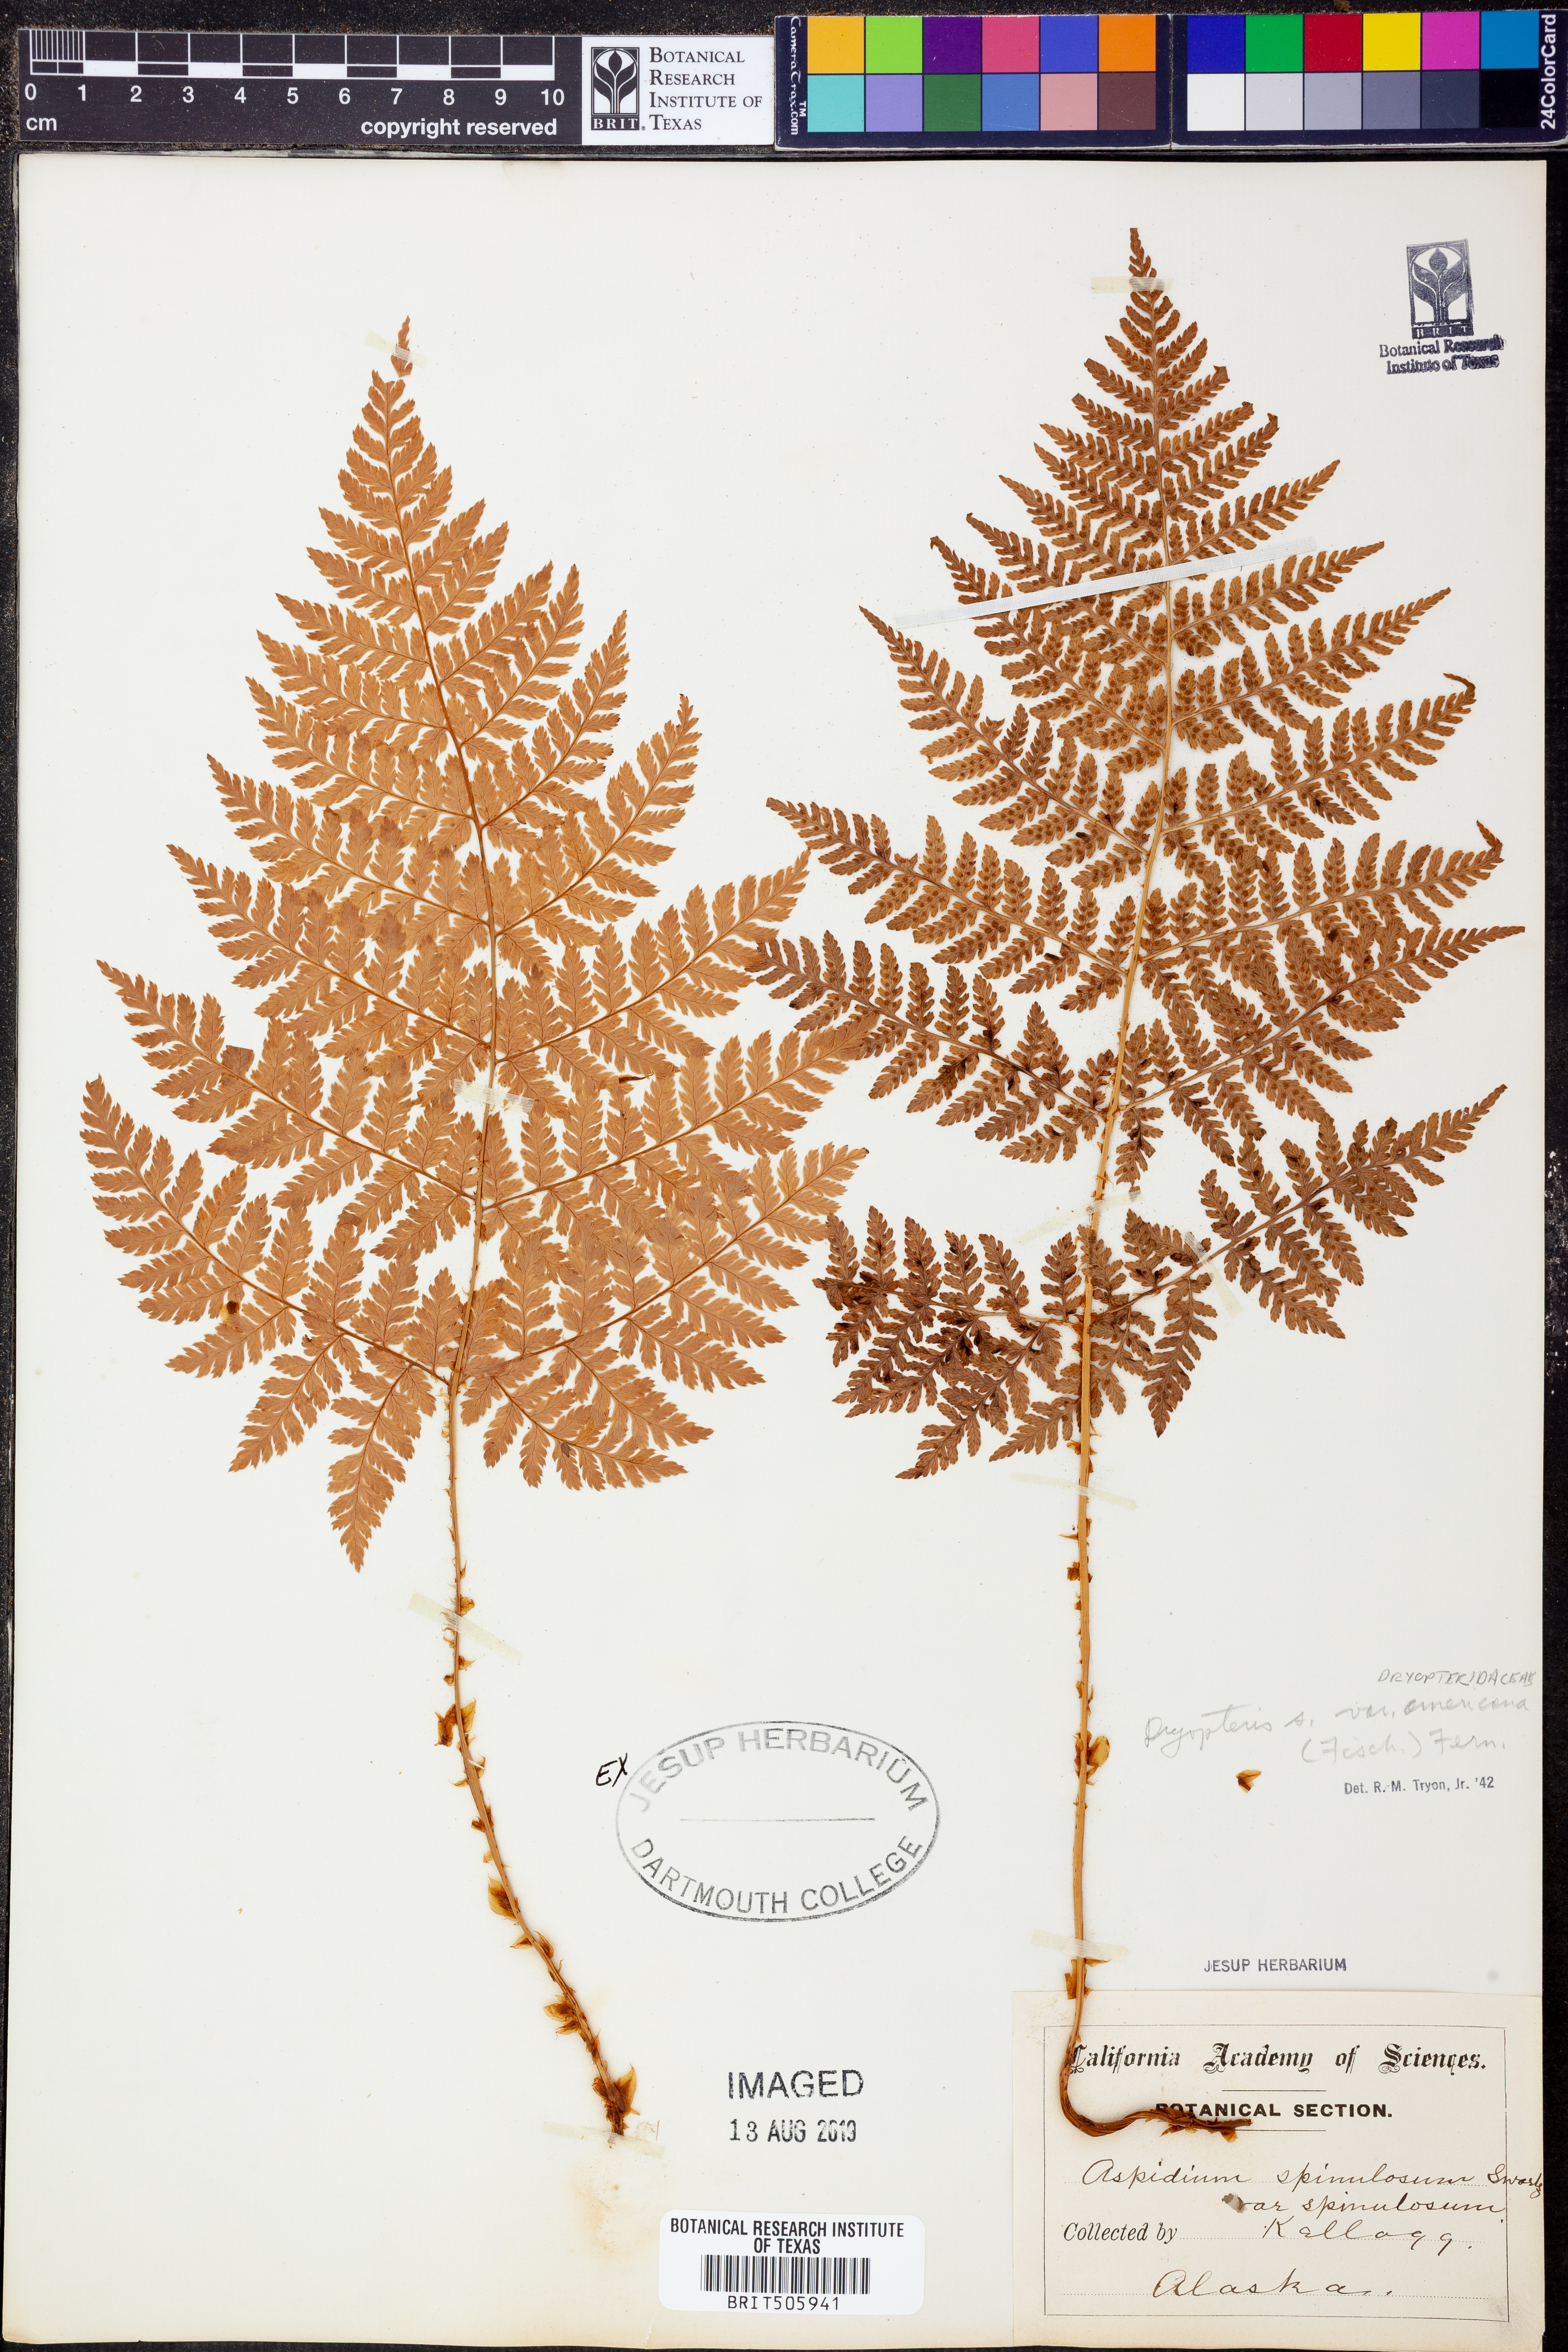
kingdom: Plantae
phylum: Tracheophyta
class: Polypodiopsida
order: Polypodiales
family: Dryopteridaceae
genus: Dryopteris
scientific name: Dryopteris campyloptera
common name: Mountain wood fern
